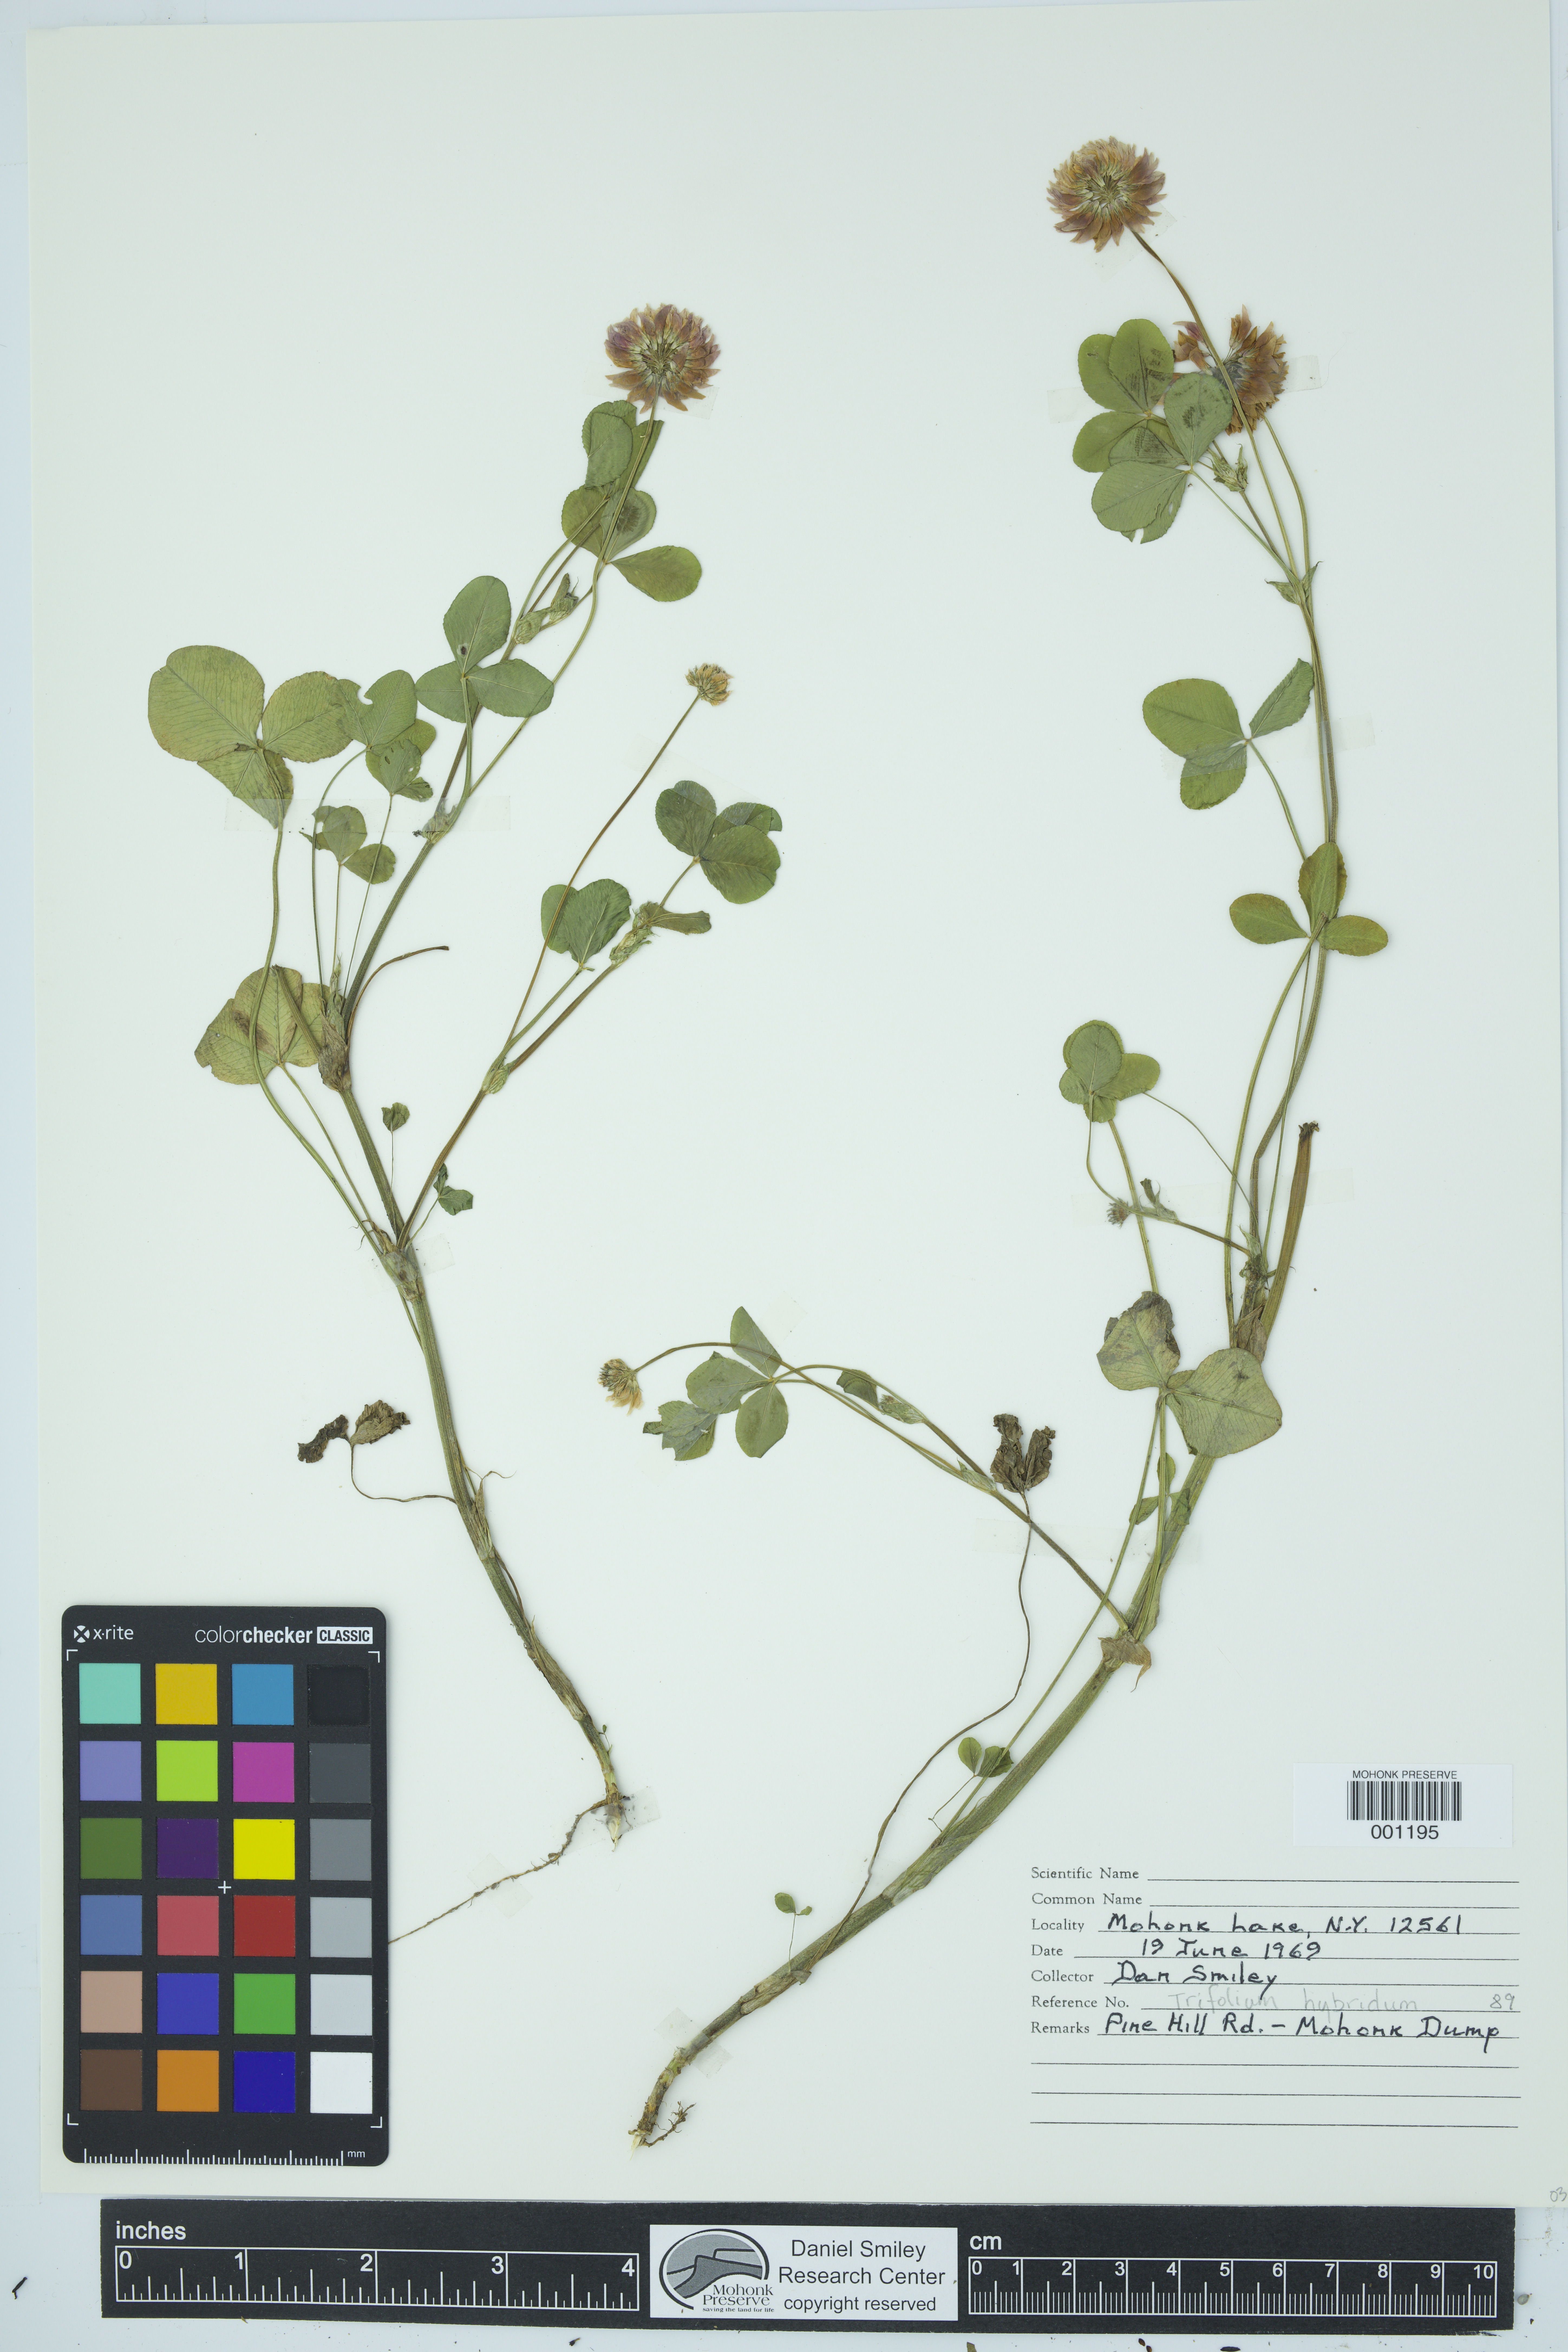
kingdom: Plantae
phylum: Tracheophyta
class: Magnoliopsida
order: Fabales
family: Fabaceae
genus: Trifolium
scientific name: Trifolium hybridum
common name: Alsike clover
